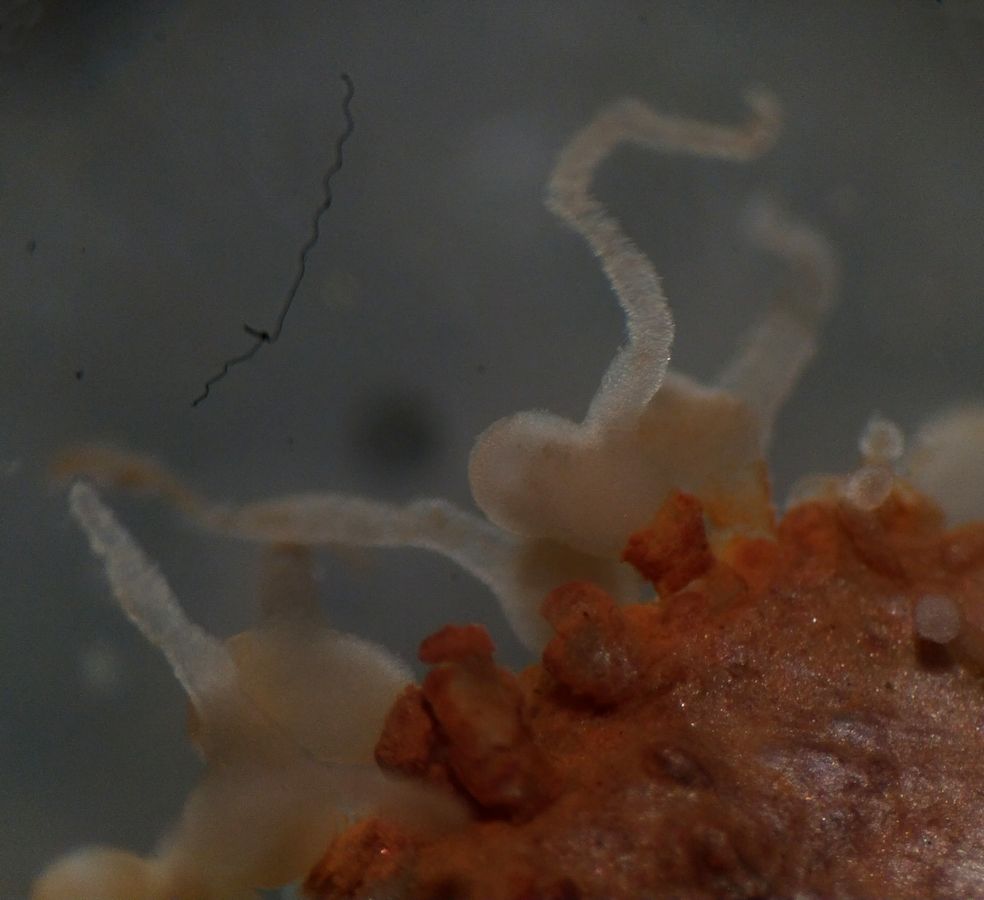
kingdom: Animalia
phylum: Cnidaria
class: Hydrozoa
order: Limnomedusae
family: Monobrachiidae
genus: Monobrachium
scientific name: Monobrachium parasitum
